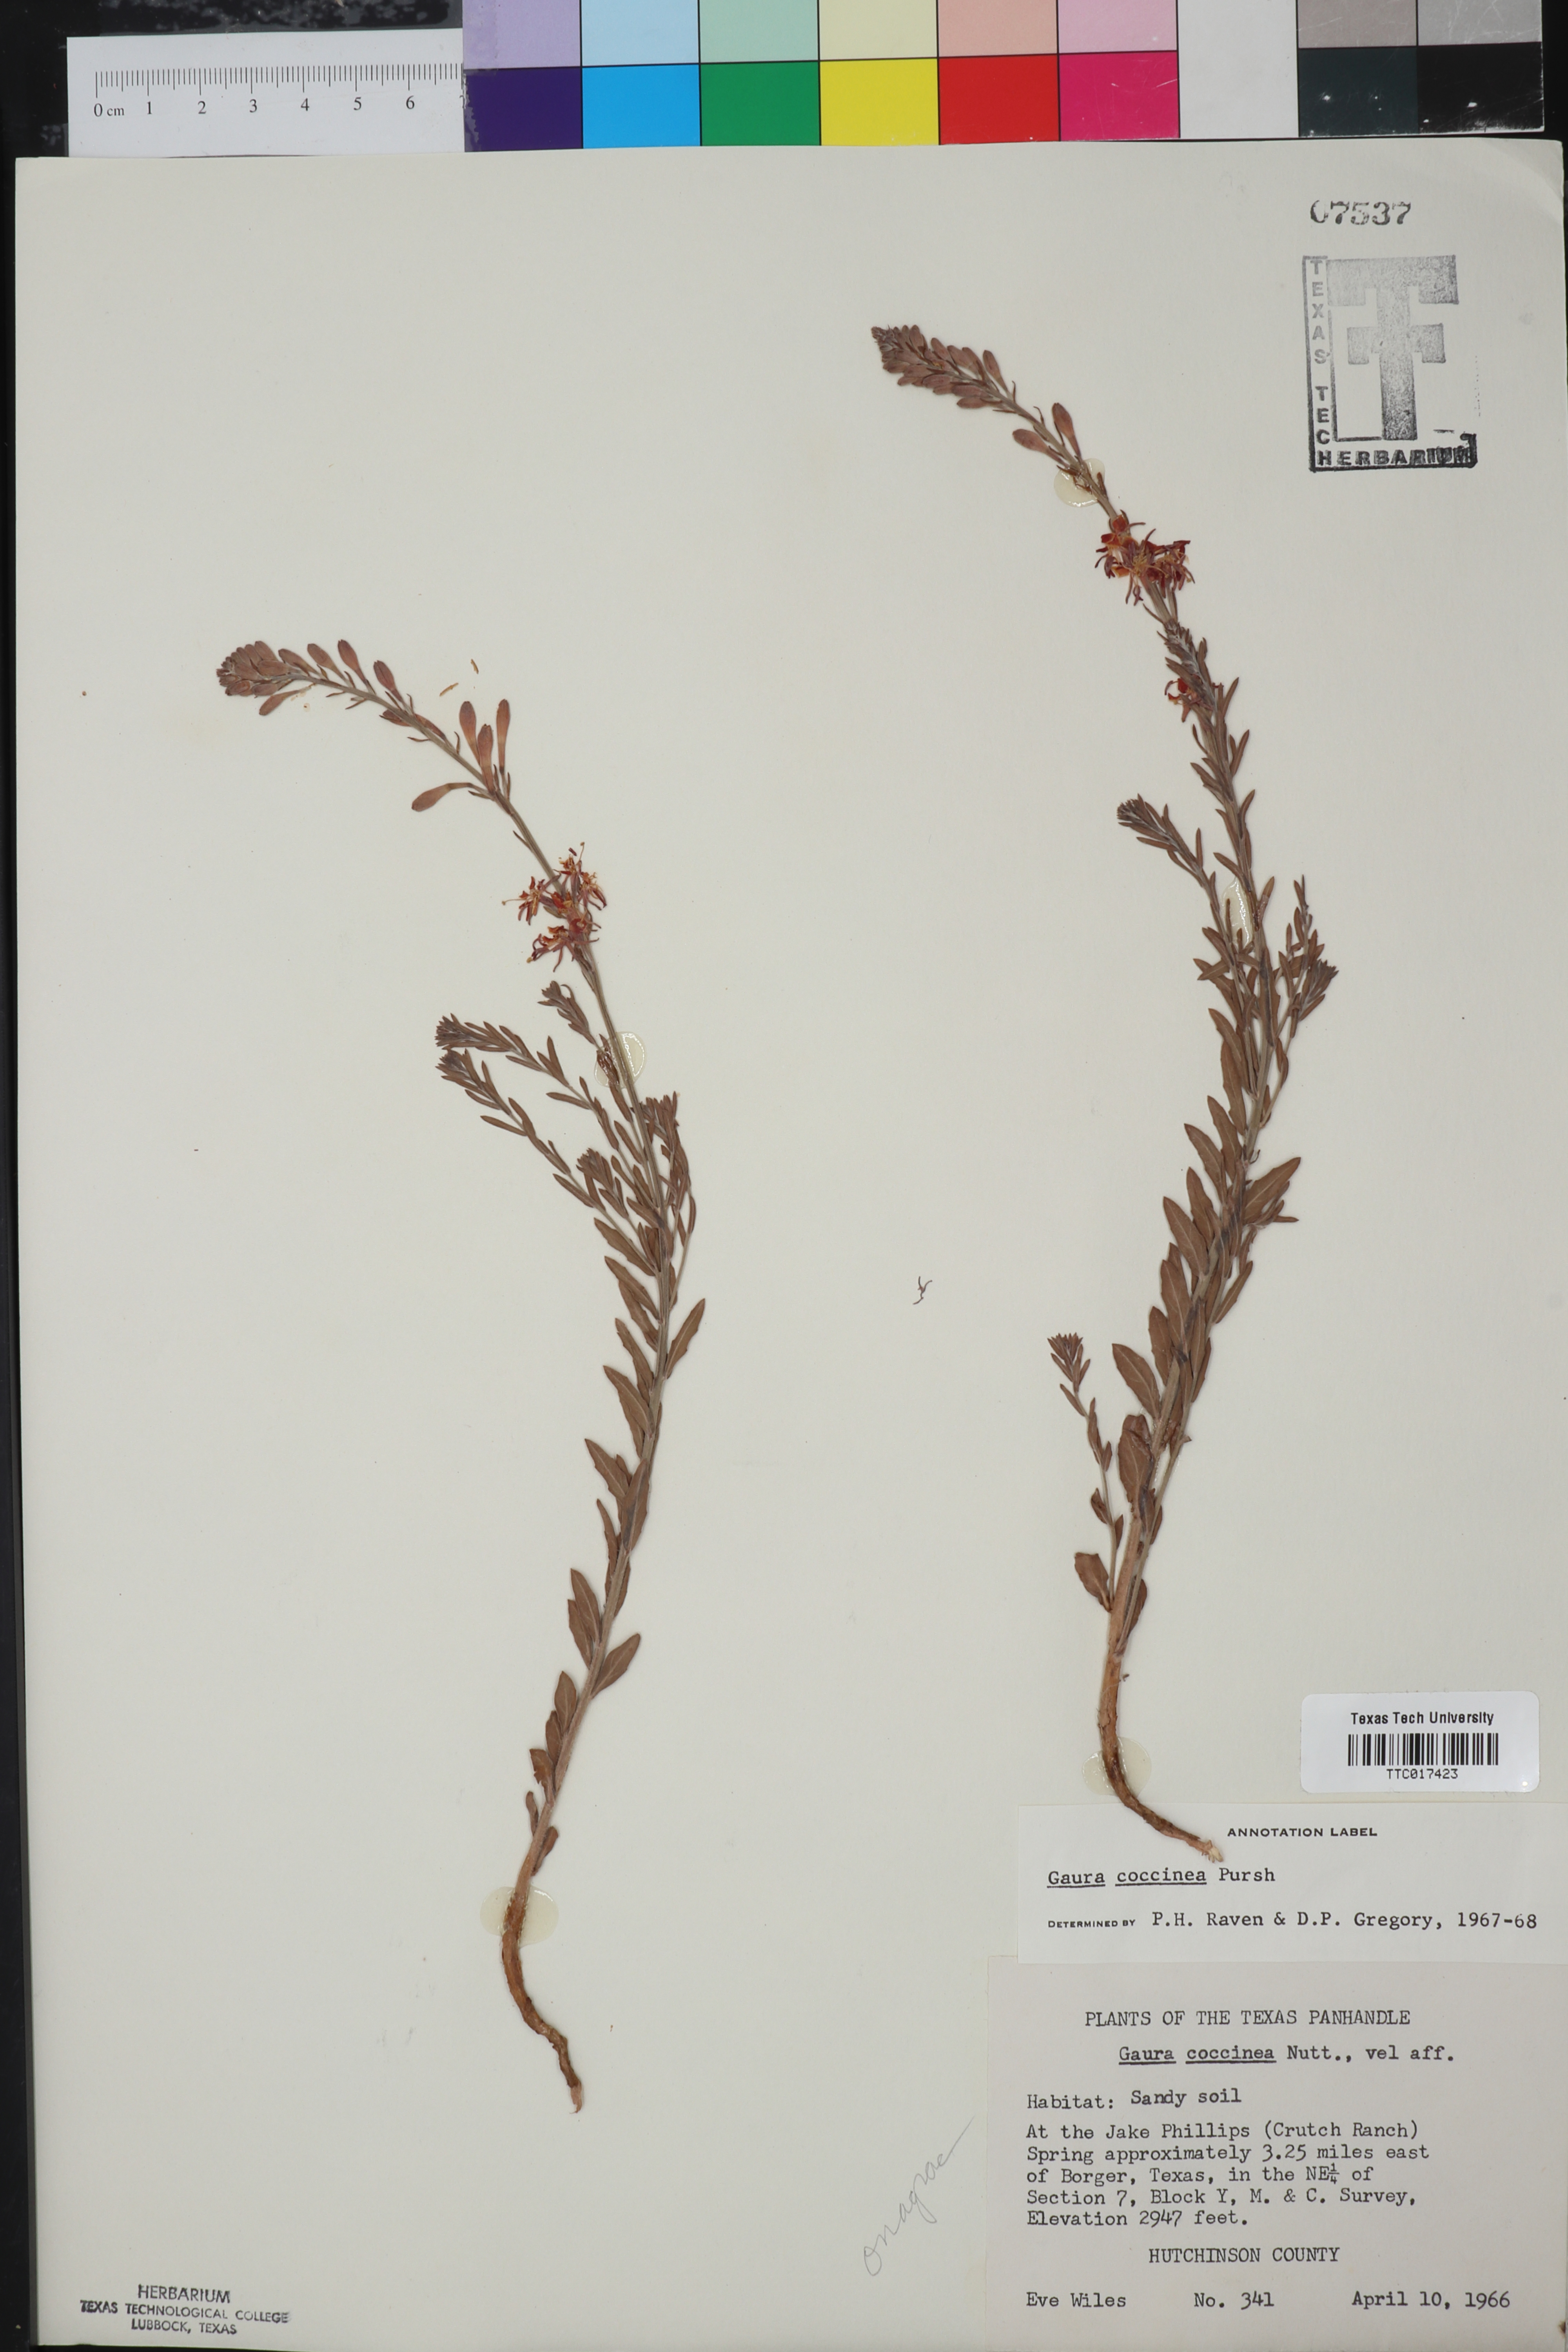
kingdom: Plantae
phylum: Tracheophyta
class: Magnoliopsida
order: Myrtales
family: Onagraceae
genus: Oenothera
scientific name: Oenothera suffrutescens
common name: Scarlet beeblossom
